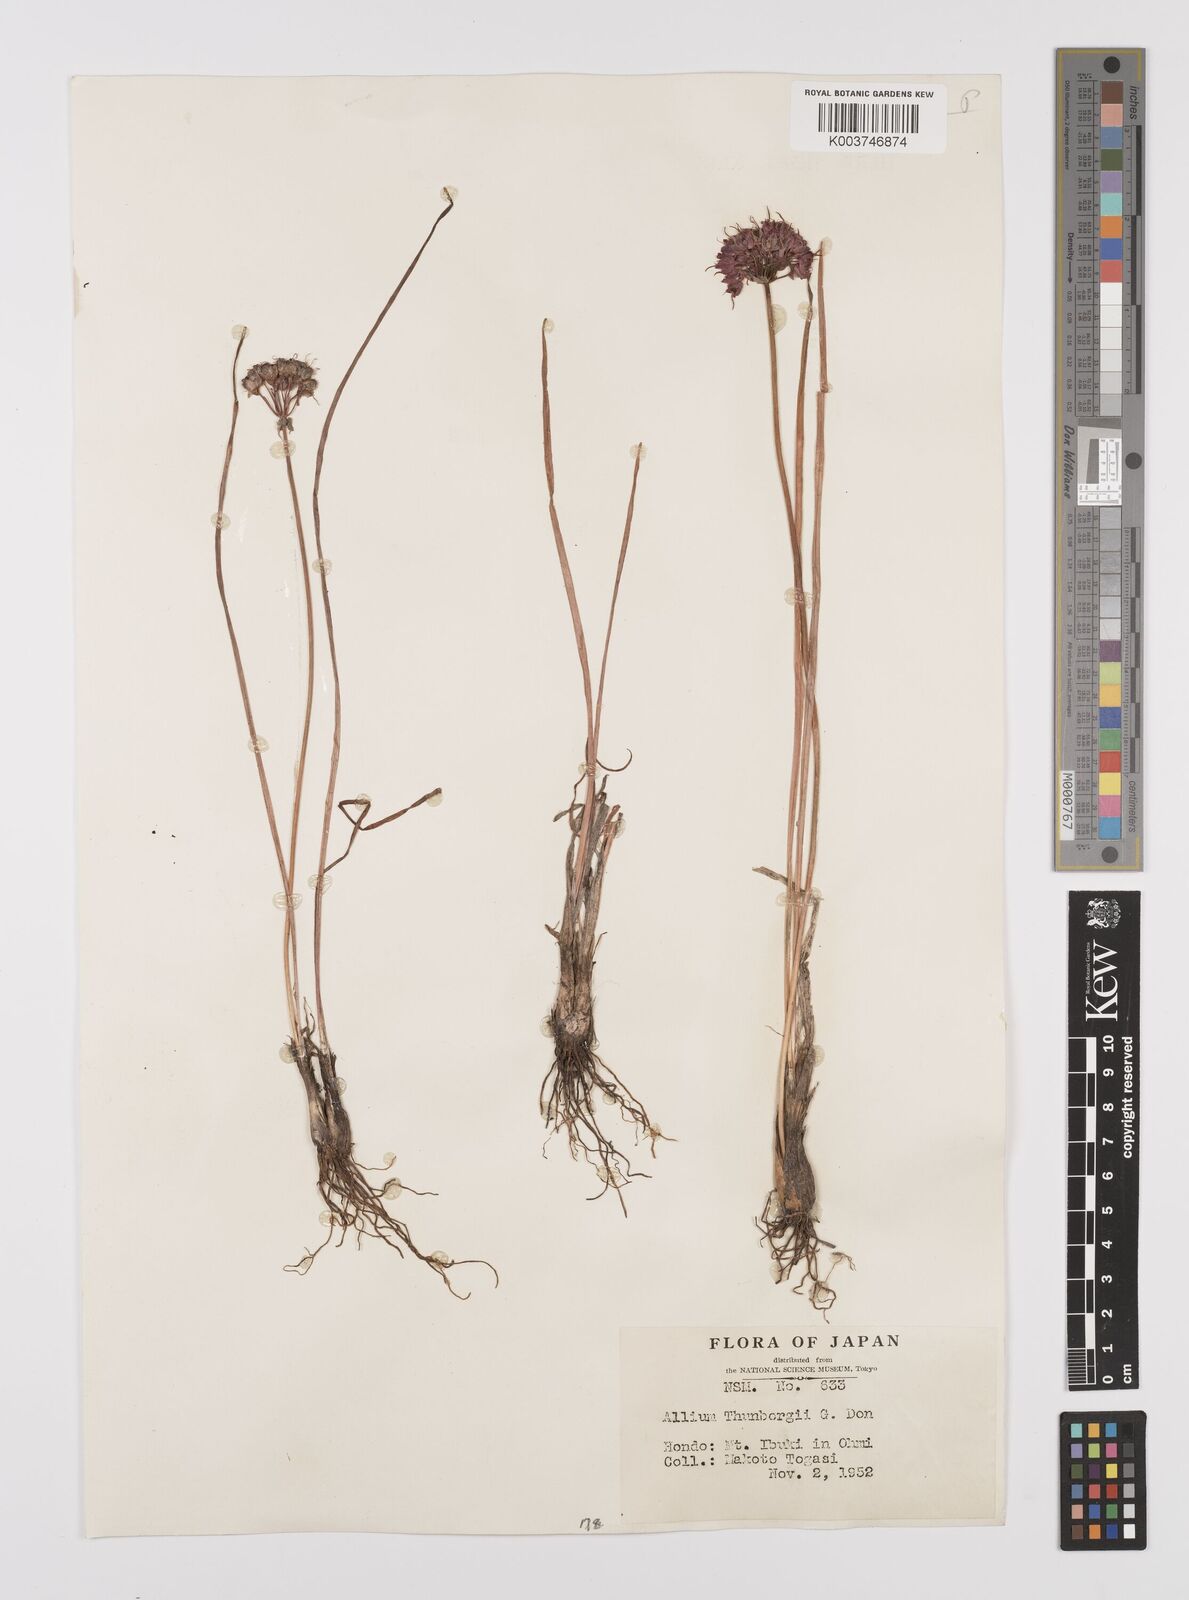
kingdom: Plantae
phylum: Tracheophyta
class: Liliopsida
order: Asparagales
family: Amaryllidaceae
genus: Allium
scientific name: Allium thunbergii
